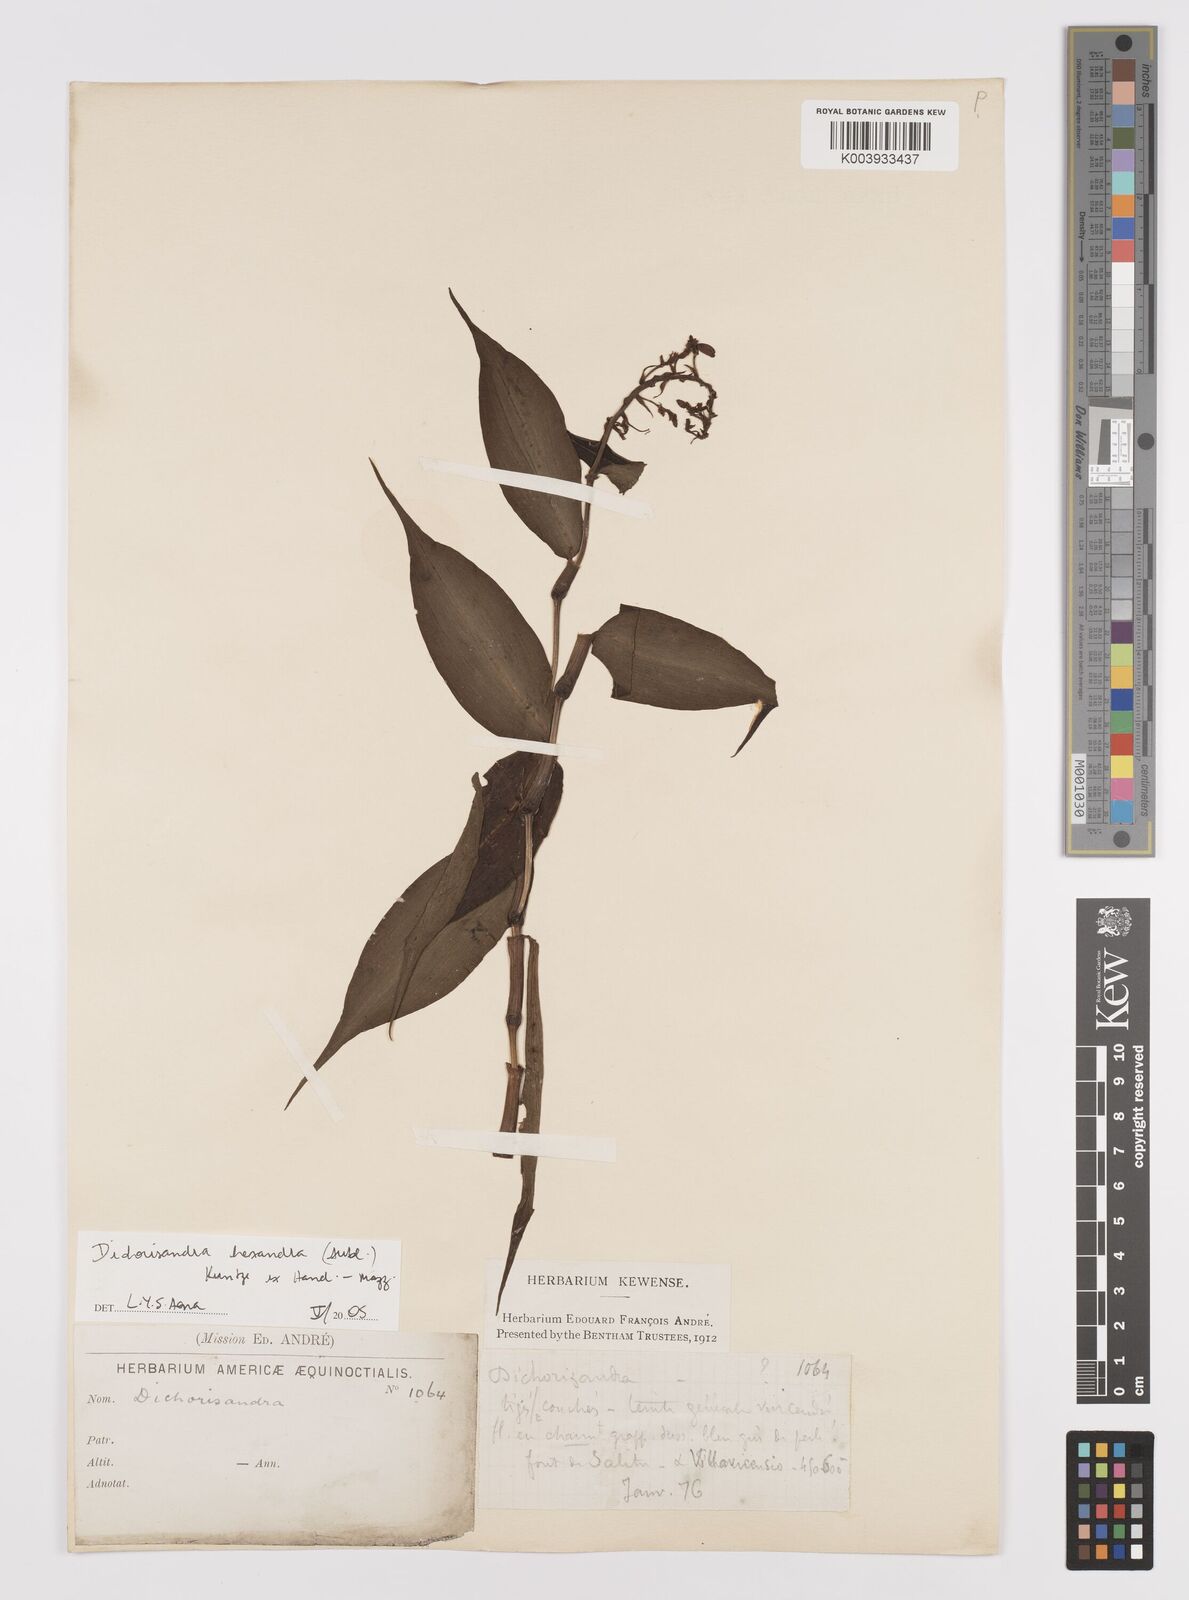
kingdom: Plantae
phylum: Tracheophyta
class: Liliopsida
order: Commelinales
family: Commelinaceae
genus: Dichorisandra
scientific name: Dichorisandra hexandra
